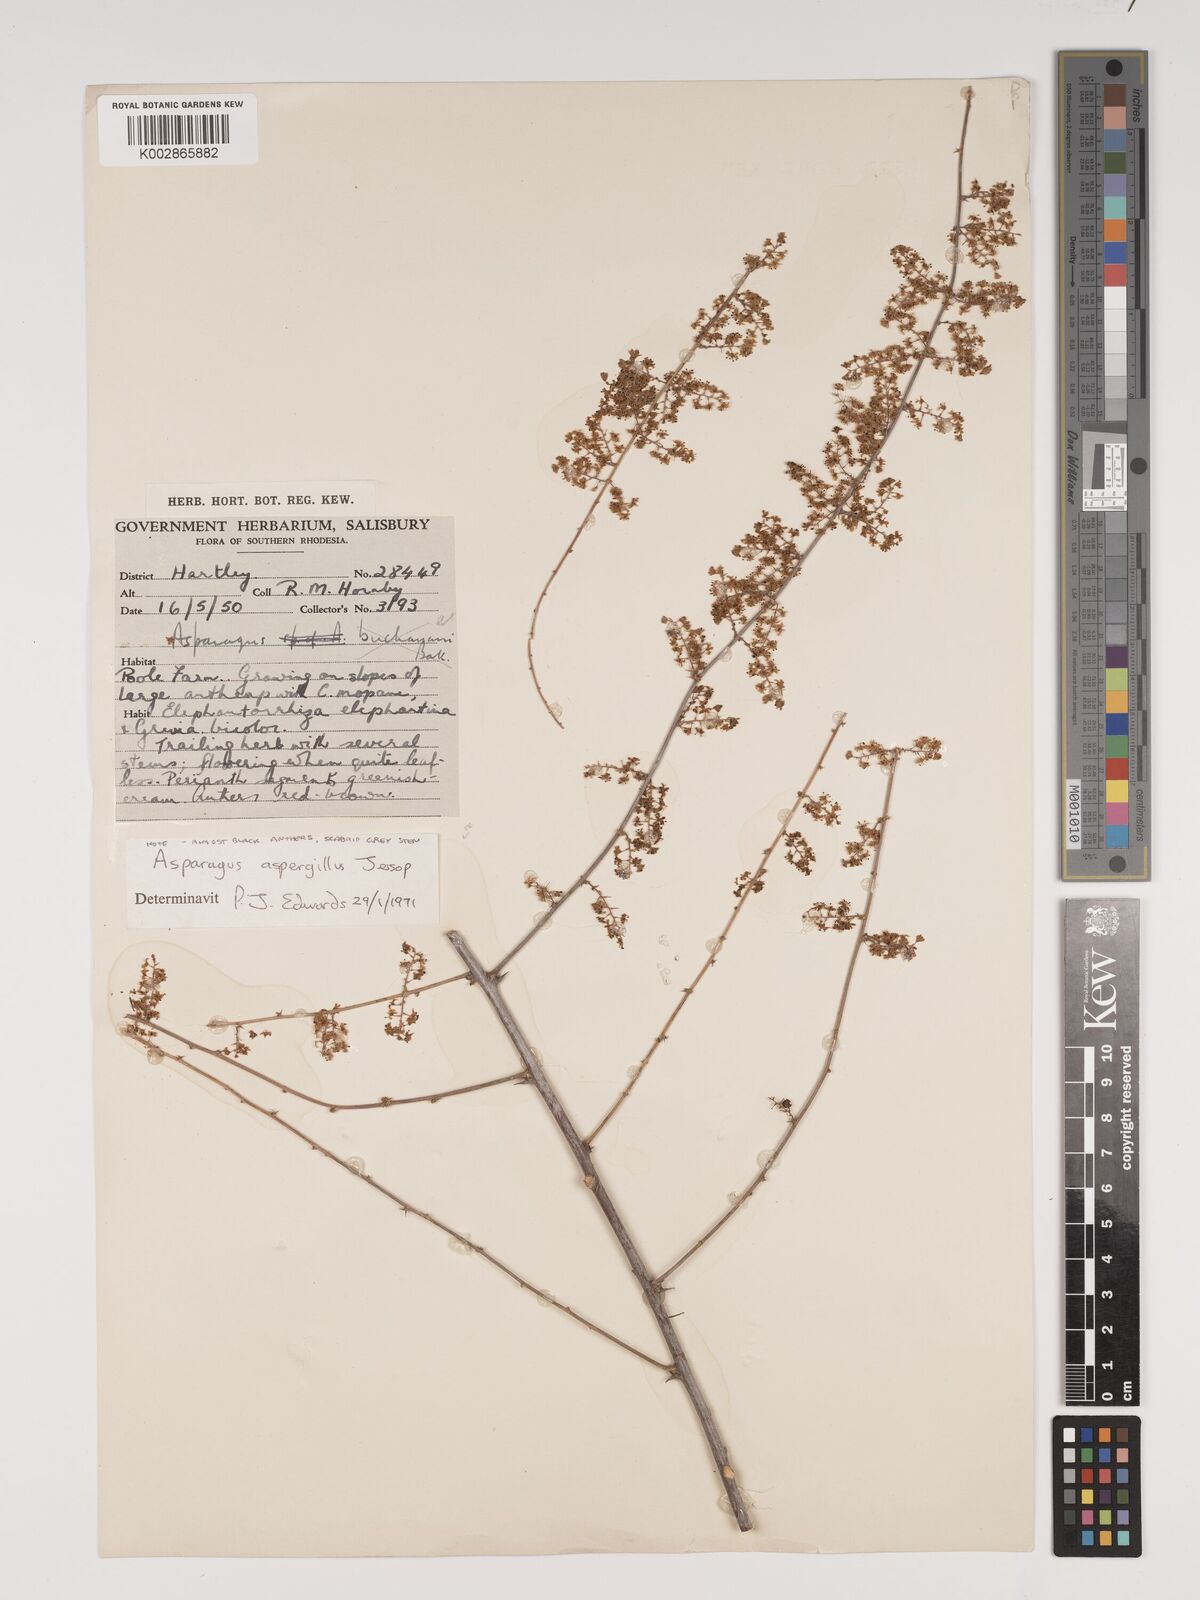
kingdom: Plantae
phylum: Tracheophyta
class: Liliopsida
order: Asparagales
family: Asparagaceae
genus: Asparagus
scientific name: Asparagus aspergillus
